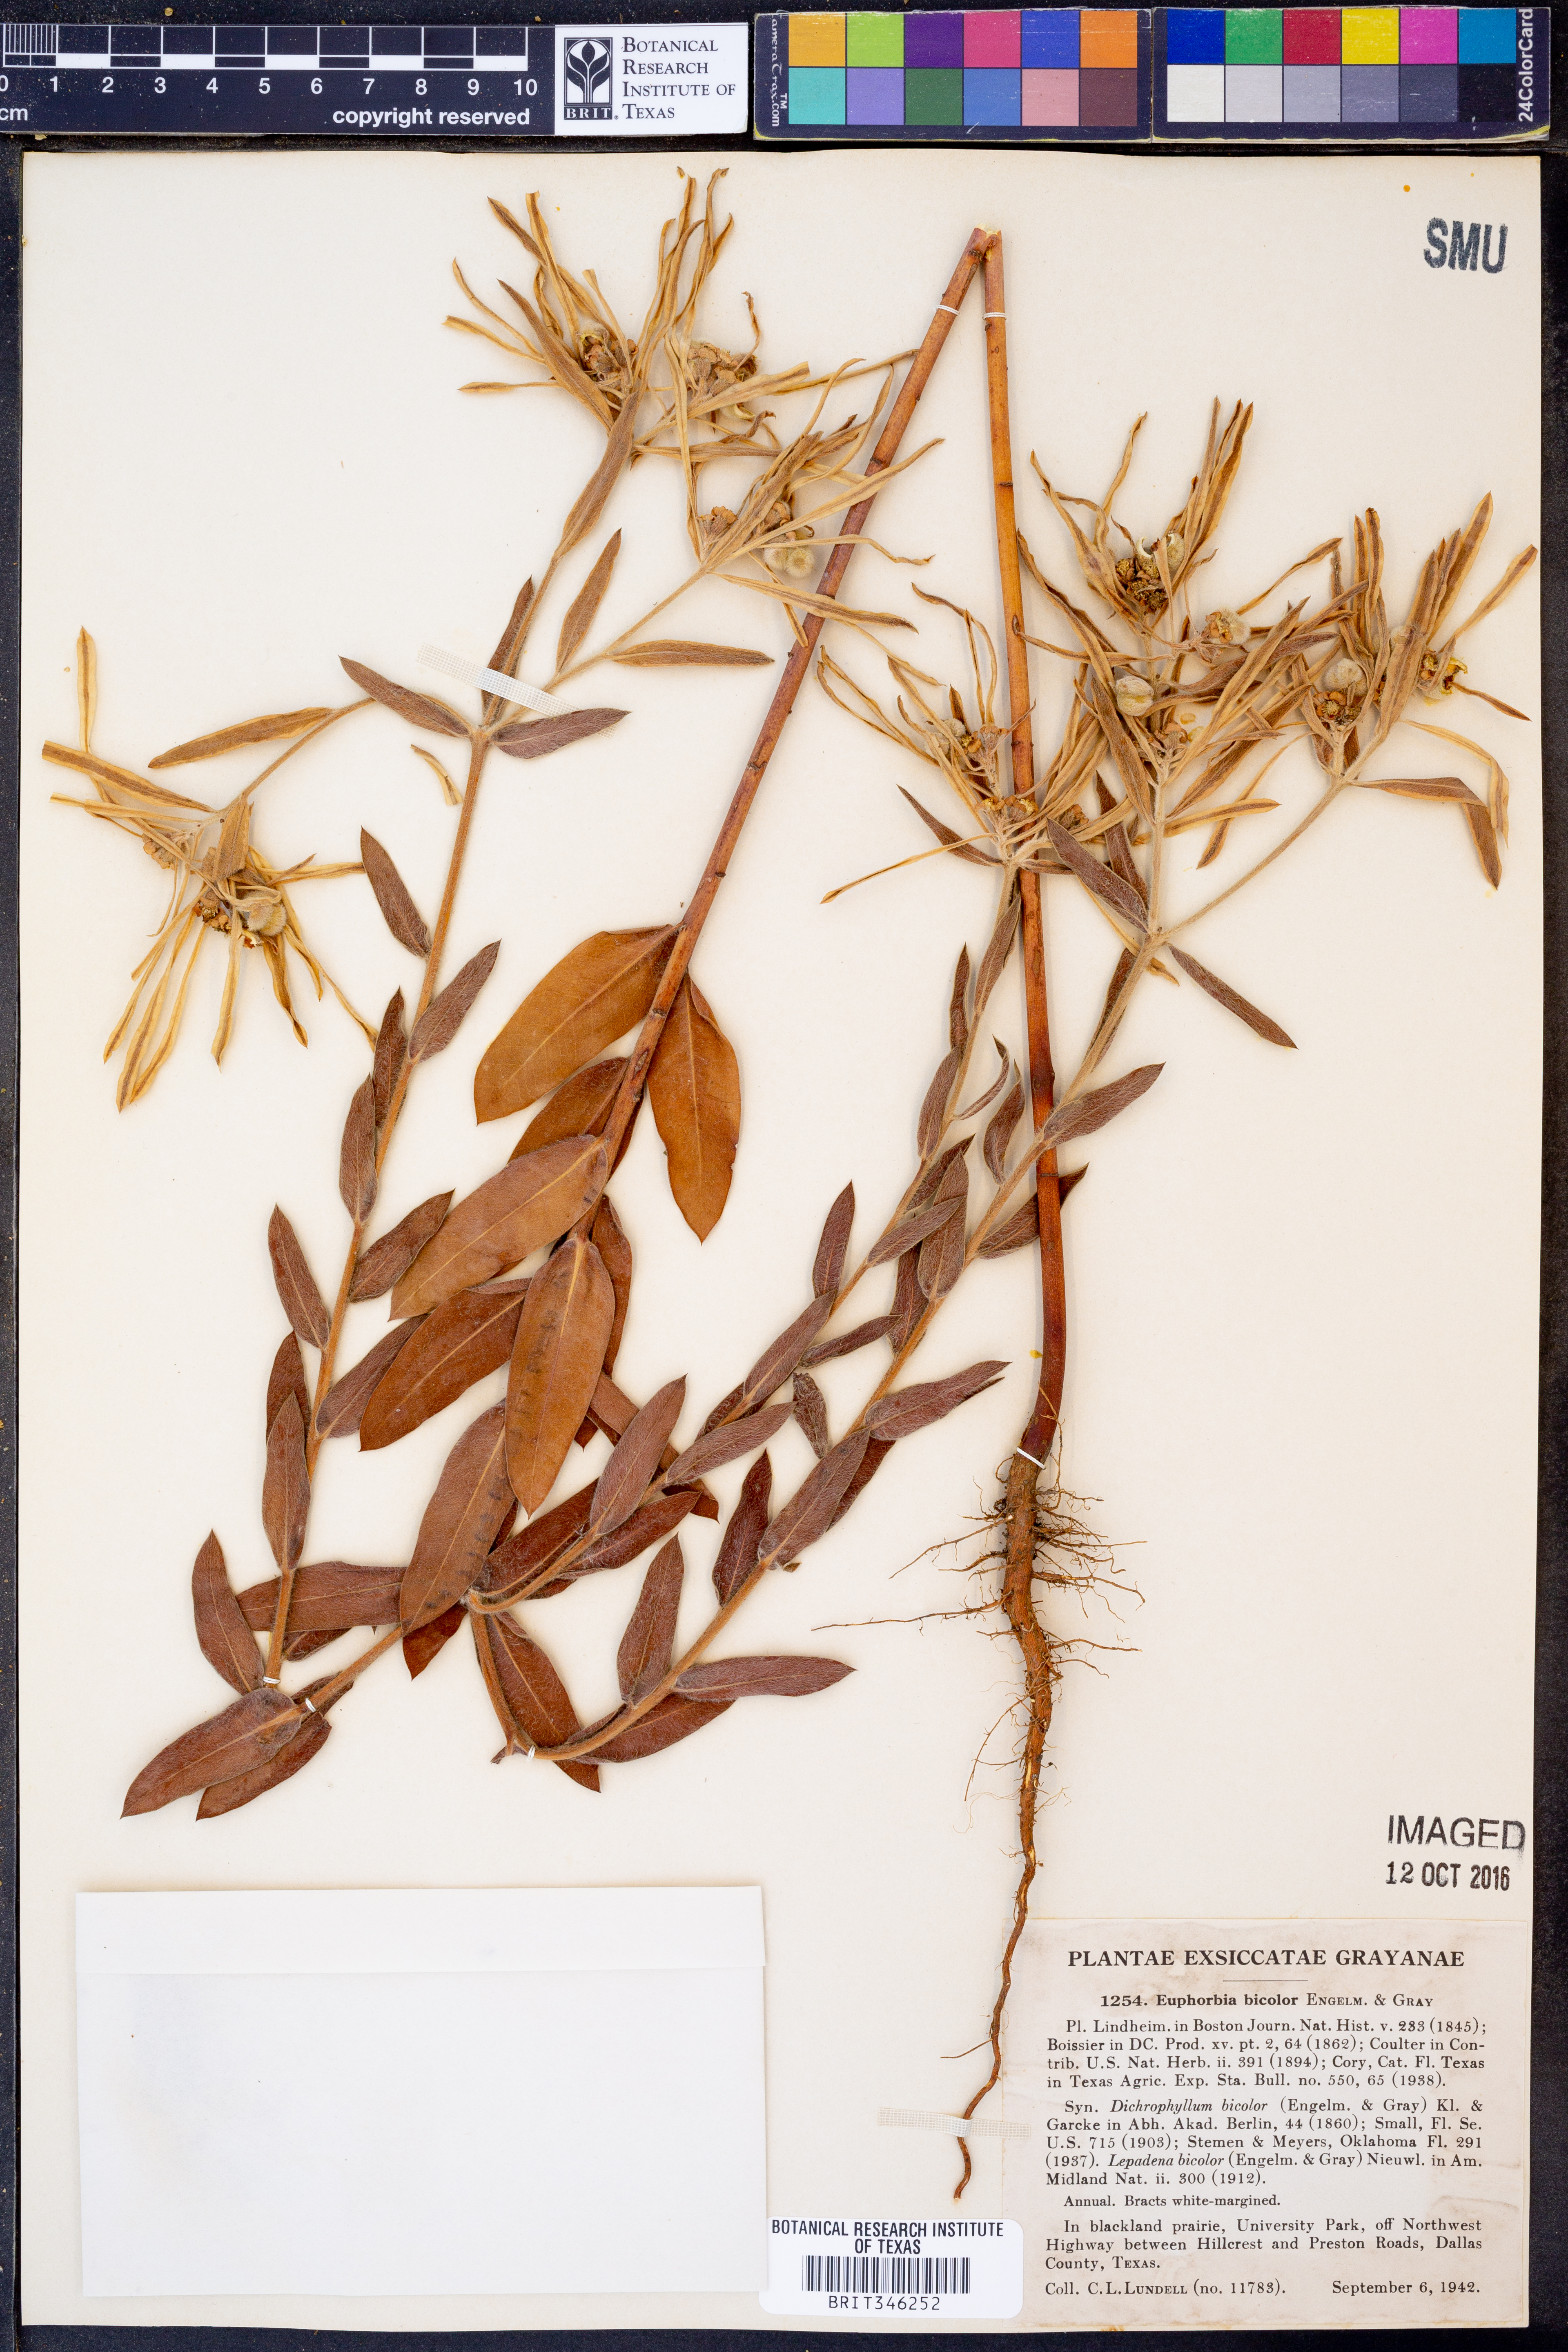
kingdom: Plantae
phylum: Tracheophyta
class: Magnoliopsida
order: Malpighiales
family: Euphorbiaceae
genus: Euphorbia
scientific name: Euphorbia bicolor
